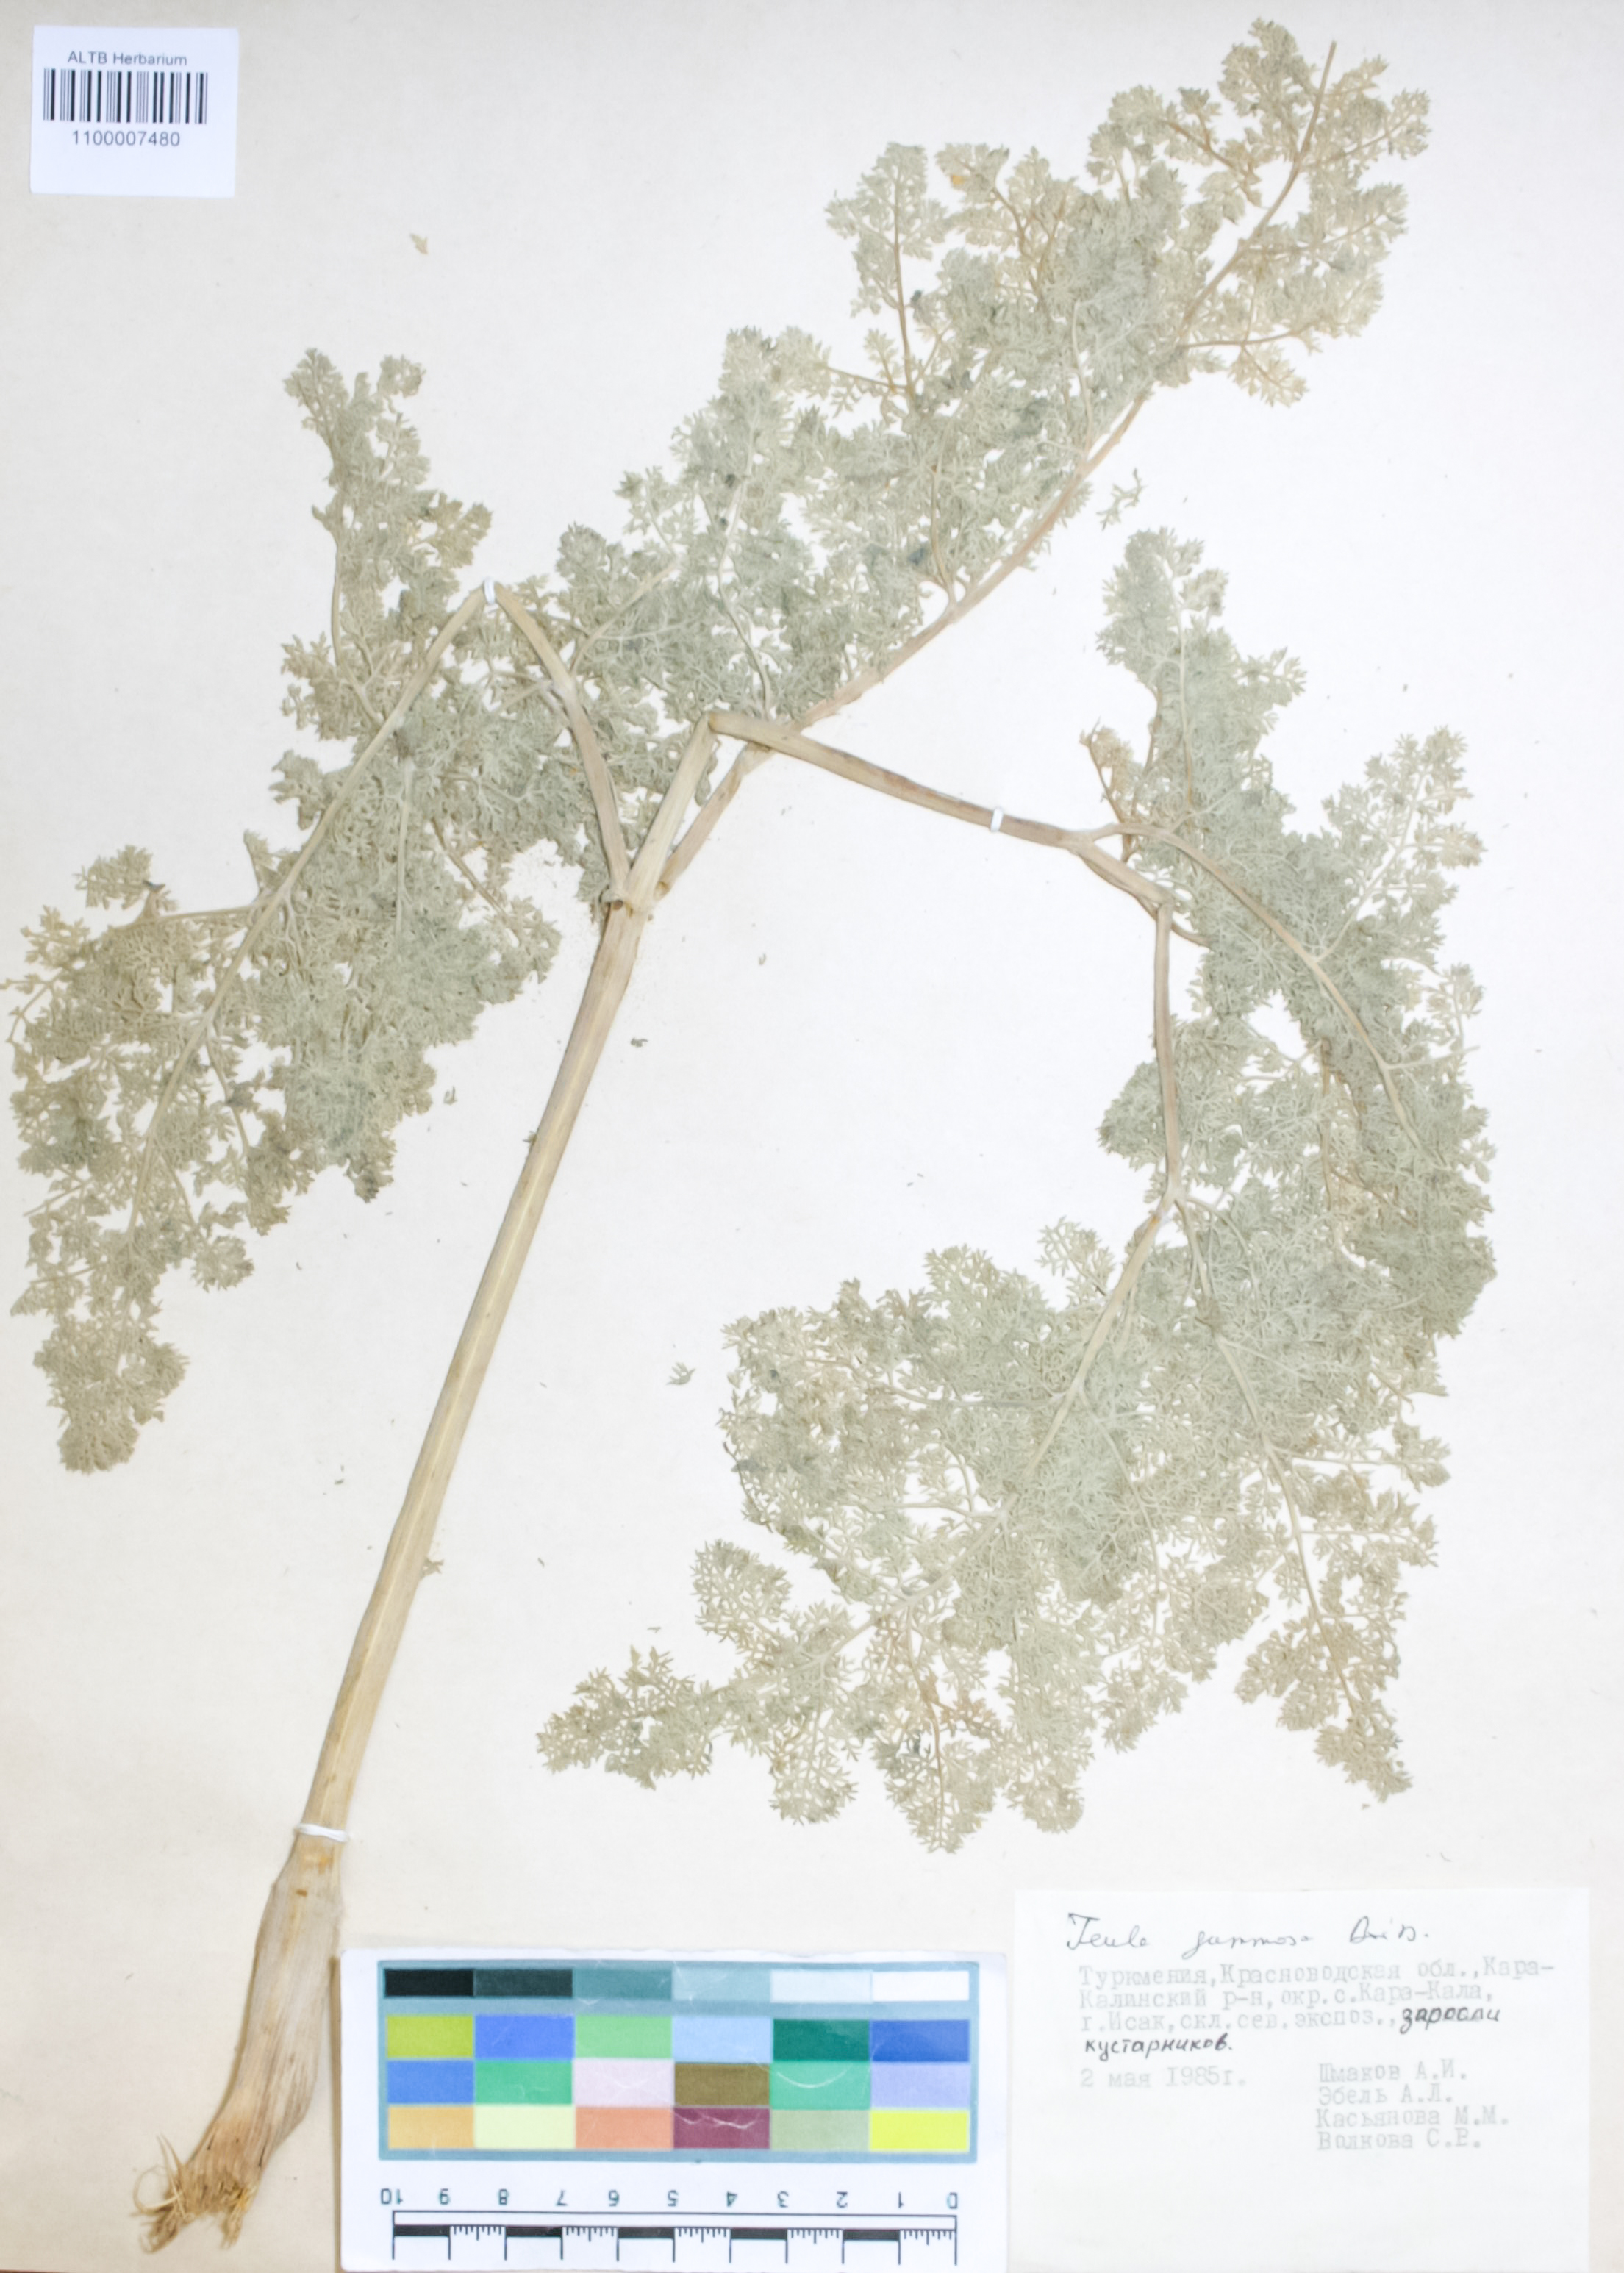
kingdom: Plantae
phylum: Tracheophyta
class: Magnoliopsida
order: Apiales
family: Apiaceae
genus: Ferula
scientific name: Ferula gummosa
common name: Galbanum
